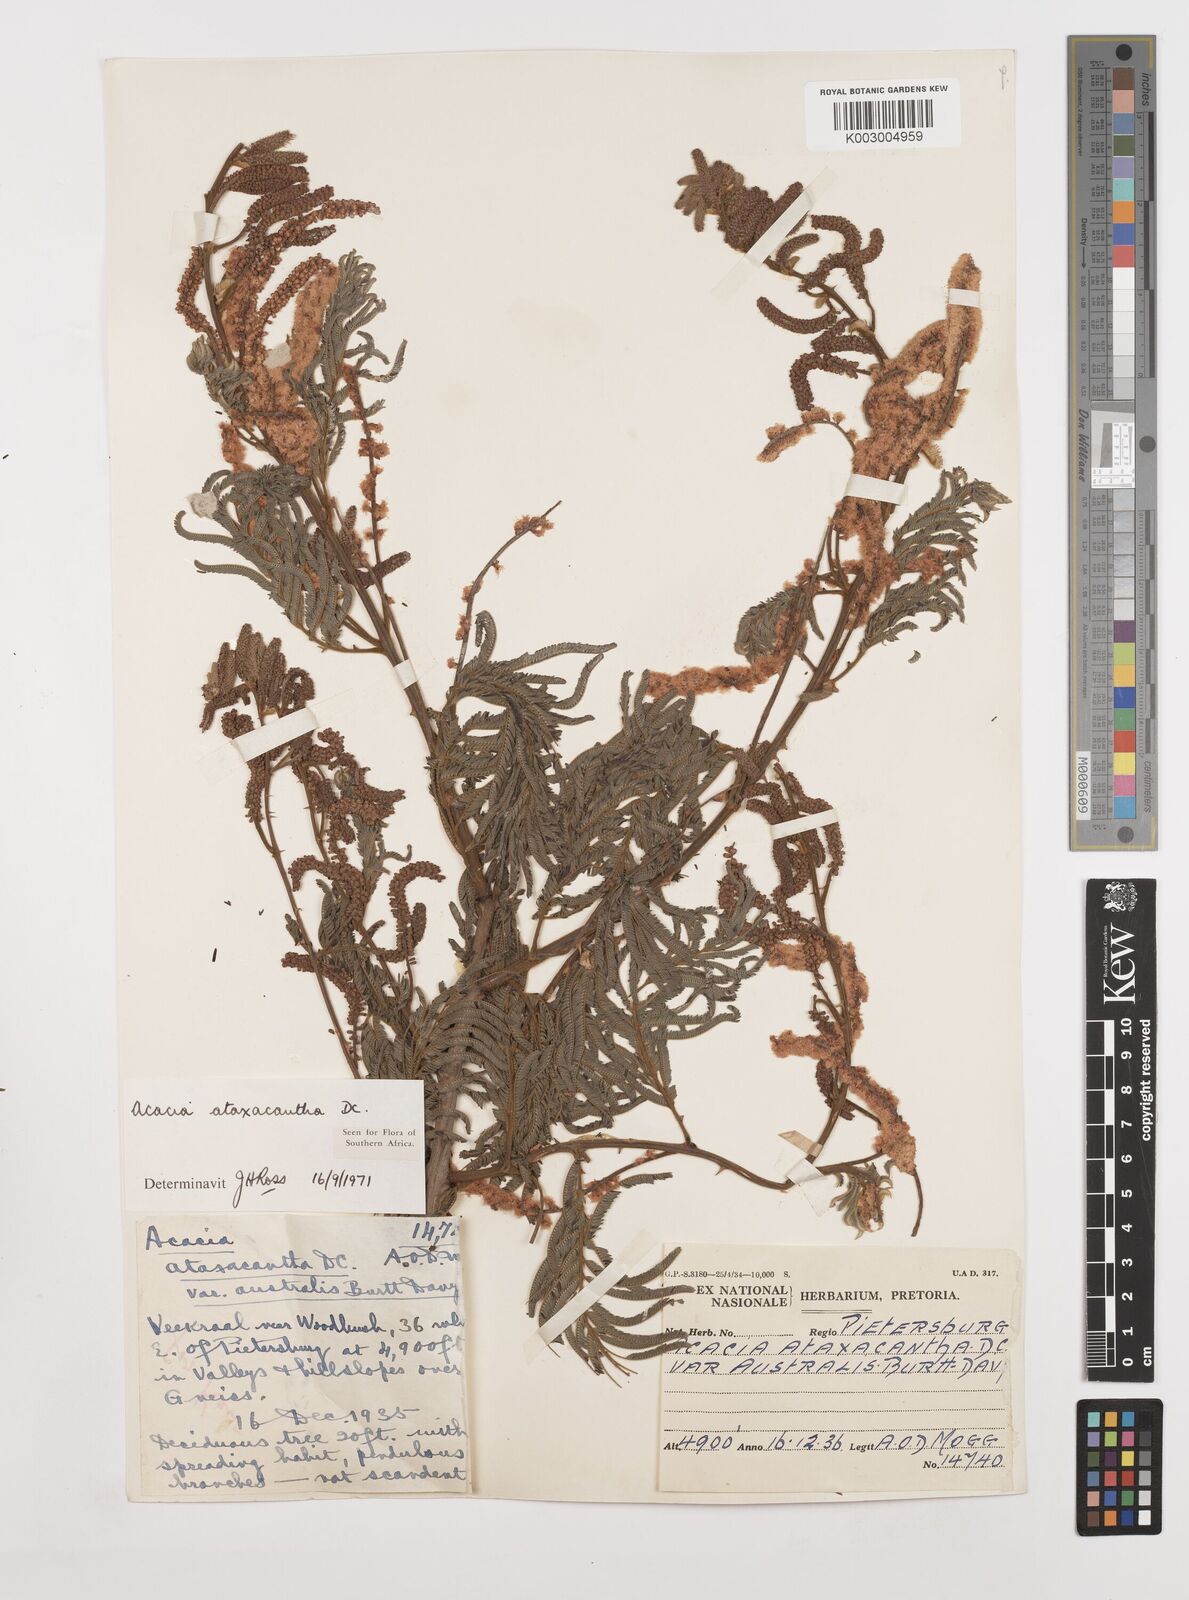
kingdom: Plantae
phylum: Tracheophyta
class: Magnoliopsida
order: Fabales
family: Fabaceae
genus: Senegalia
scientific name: Senegalia ataxacantha
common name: Flame acacia
